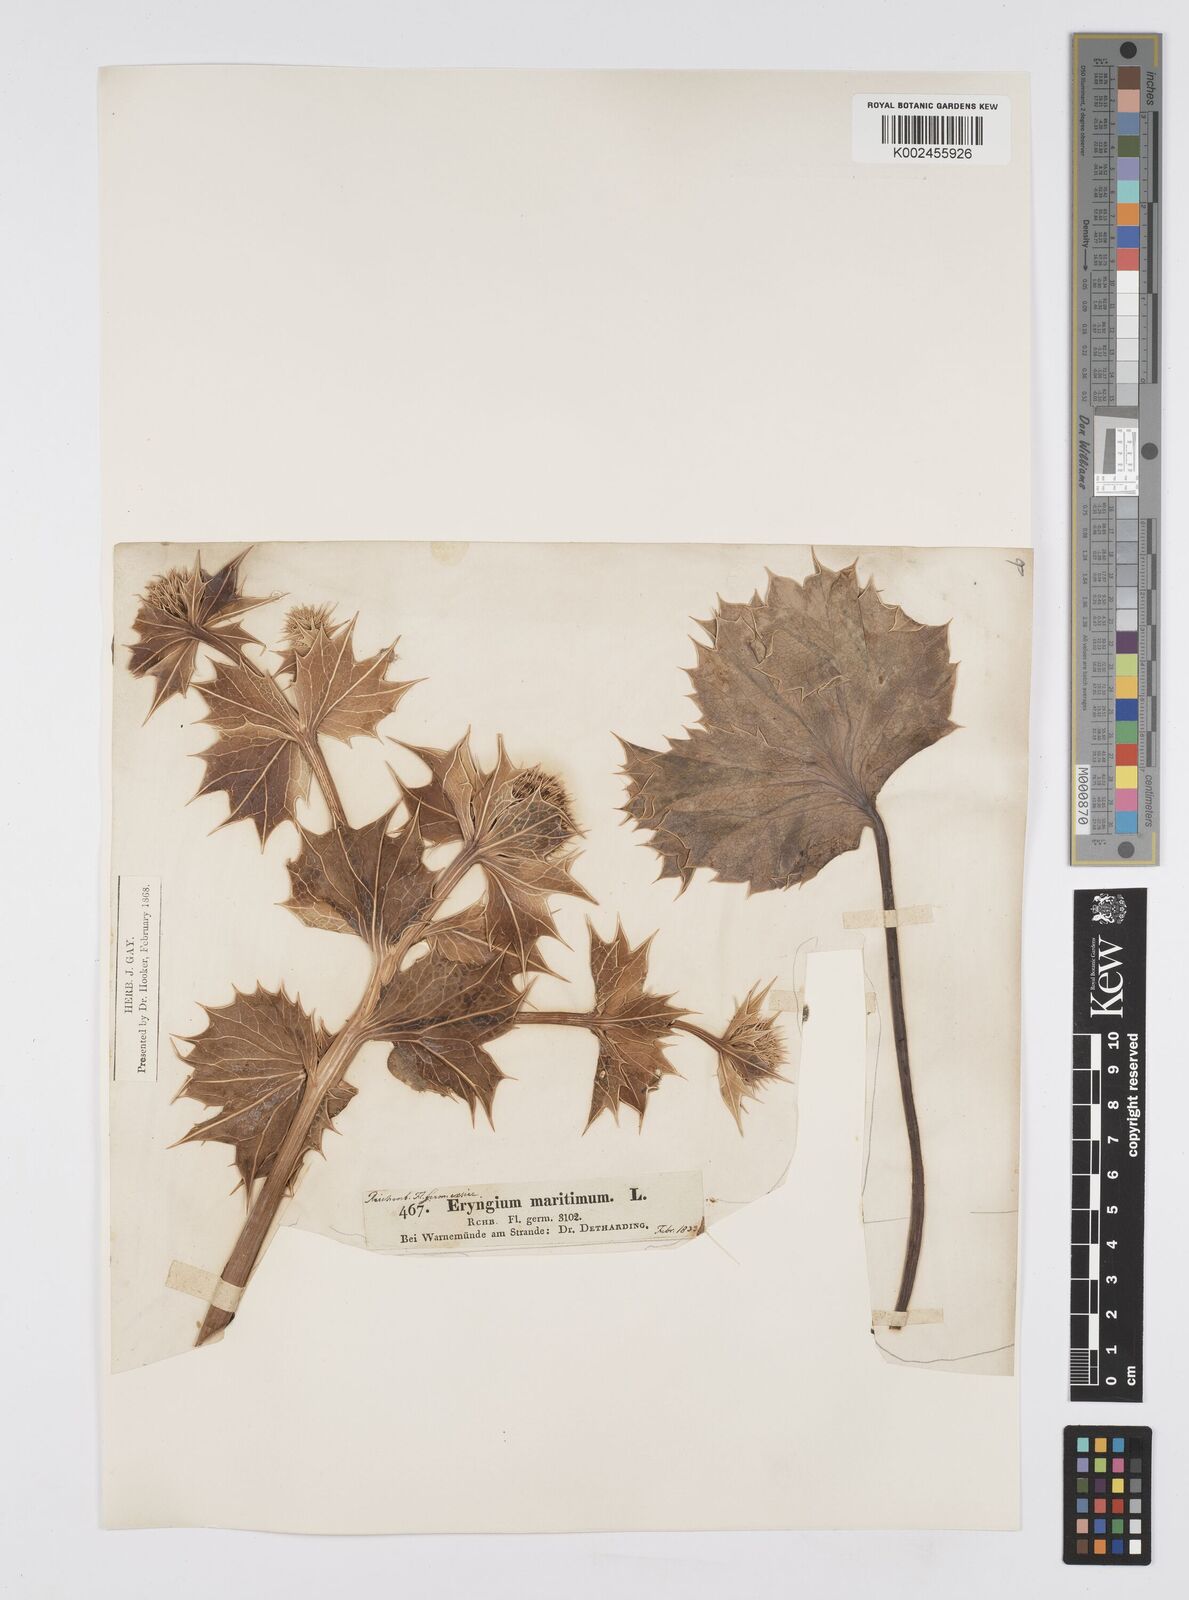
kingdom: Plantae
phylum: Tracheophyta
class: Magnoliopsida
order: Apiales
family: Apiaceae
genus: Eryngium
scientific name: Eryngium maritimum
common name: Sea-holly
